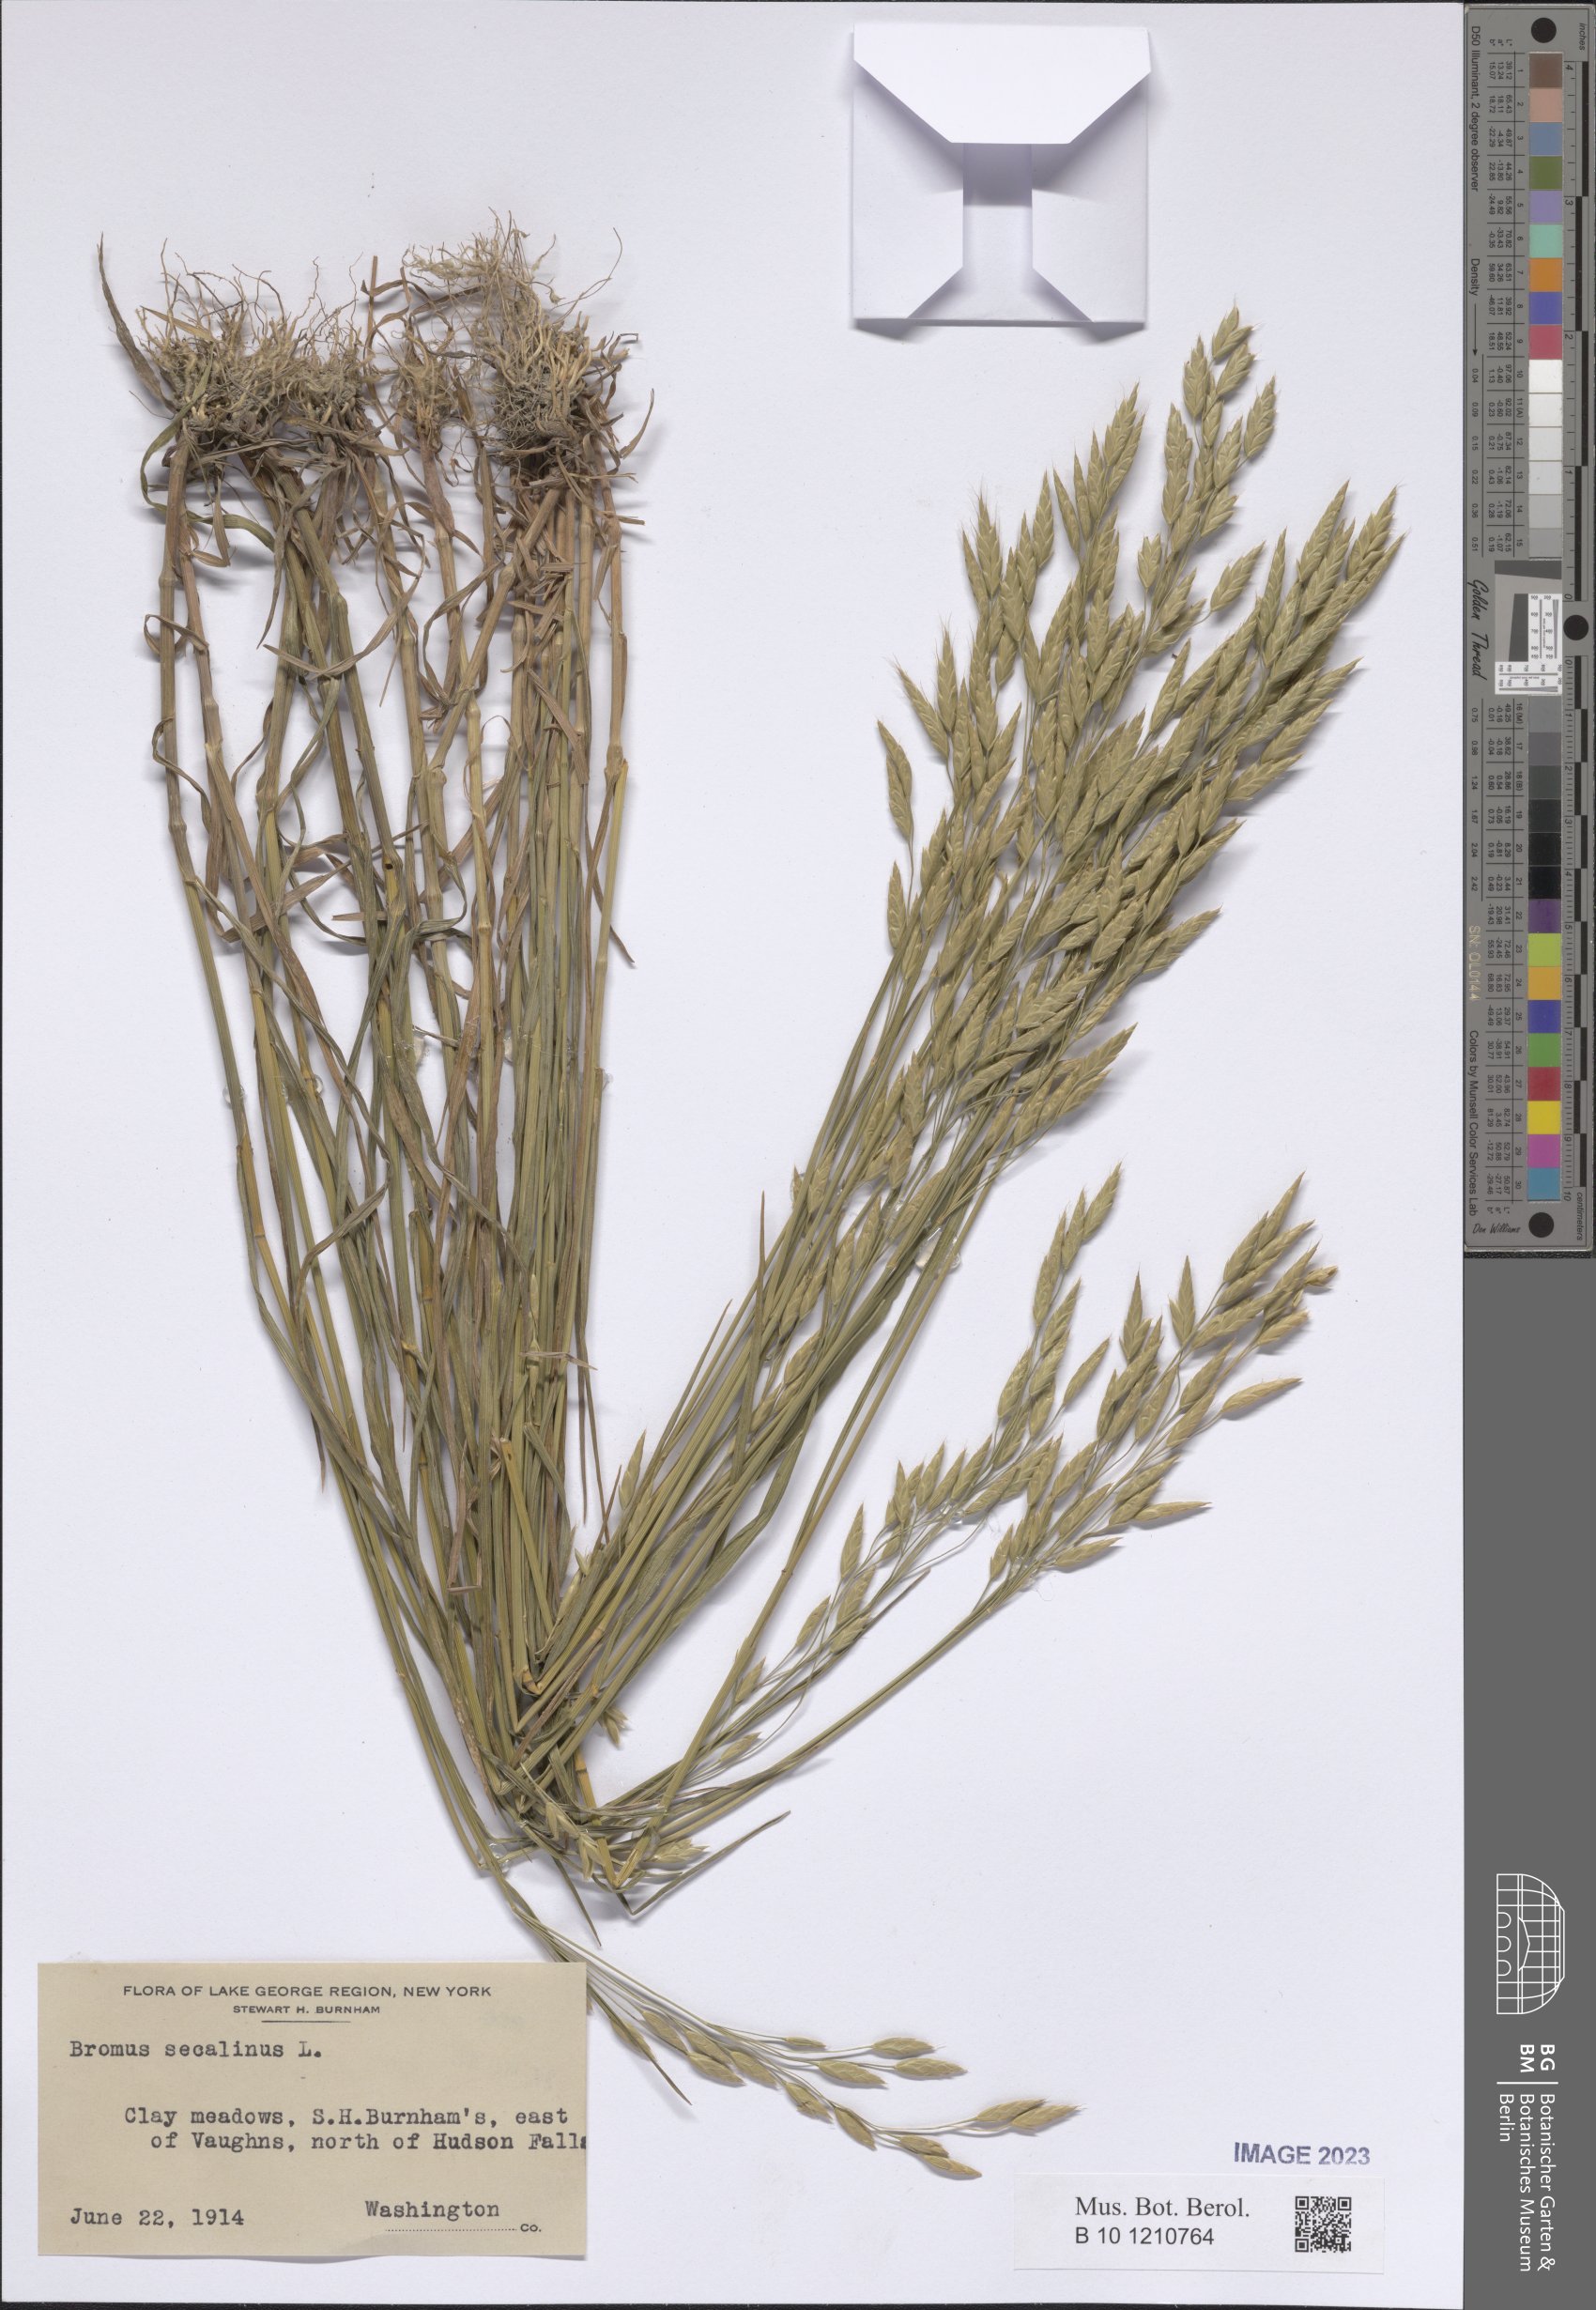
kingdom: Plantae
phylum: Tracheophyta
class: Liliopsida
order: Poales
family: Poaceae
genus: Bromus
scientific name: Bromus secalinus
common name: Rye brome
